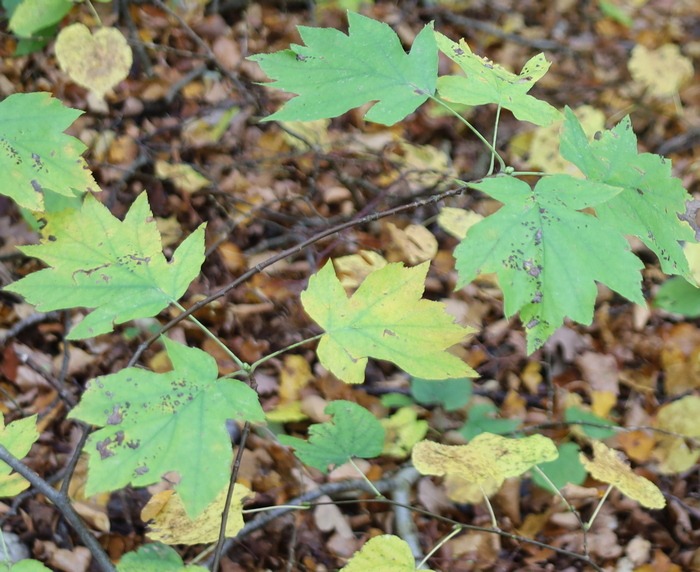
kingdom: Plantae
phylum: Tracheophyta
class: Magnoliopsida
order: Rosales
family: Rosaceae
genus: Torminalis
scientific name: Torminalis glaberrima
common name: Tarmvrid-røn
